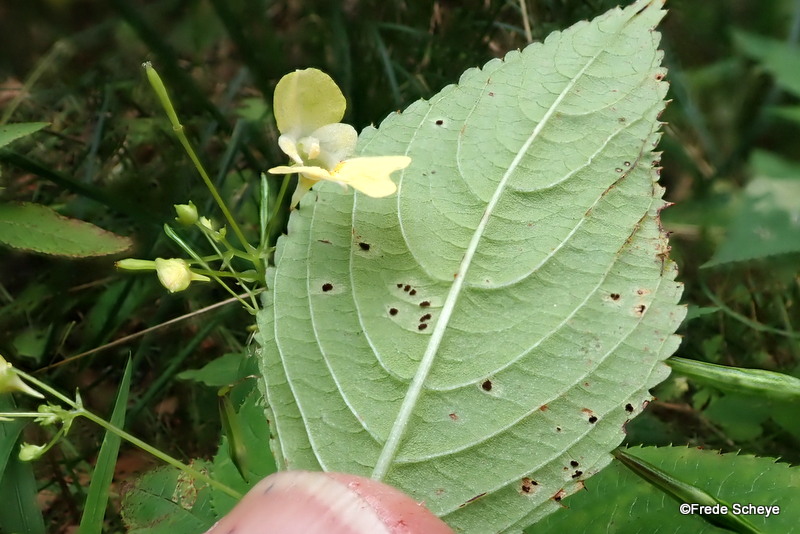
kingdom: Fungi
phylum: Basidiomycota
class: Pucciniomycetes
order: Pucciniales
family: Pucciniaceae
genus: Puccinia
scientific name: Puccinia komarovii
